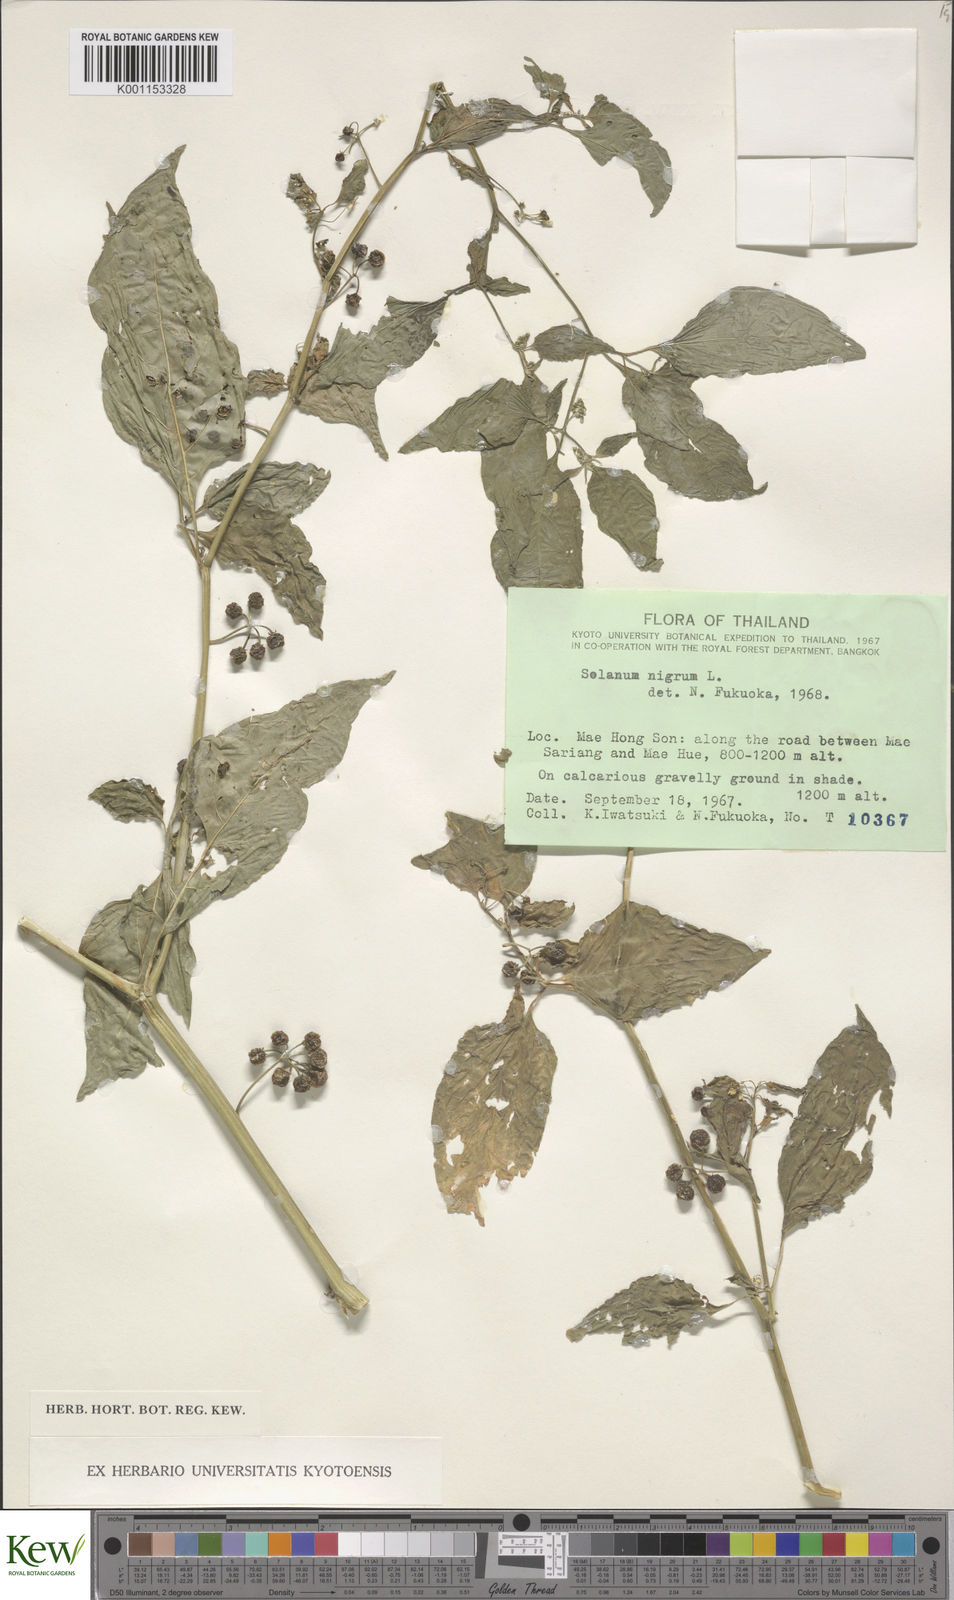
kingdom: Plantae
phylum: Tracheophyta
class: Magnoliopsida
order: Solanales
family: Solanaceae
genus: Solanum
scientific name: Solanum americanum
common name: American black nightshade
